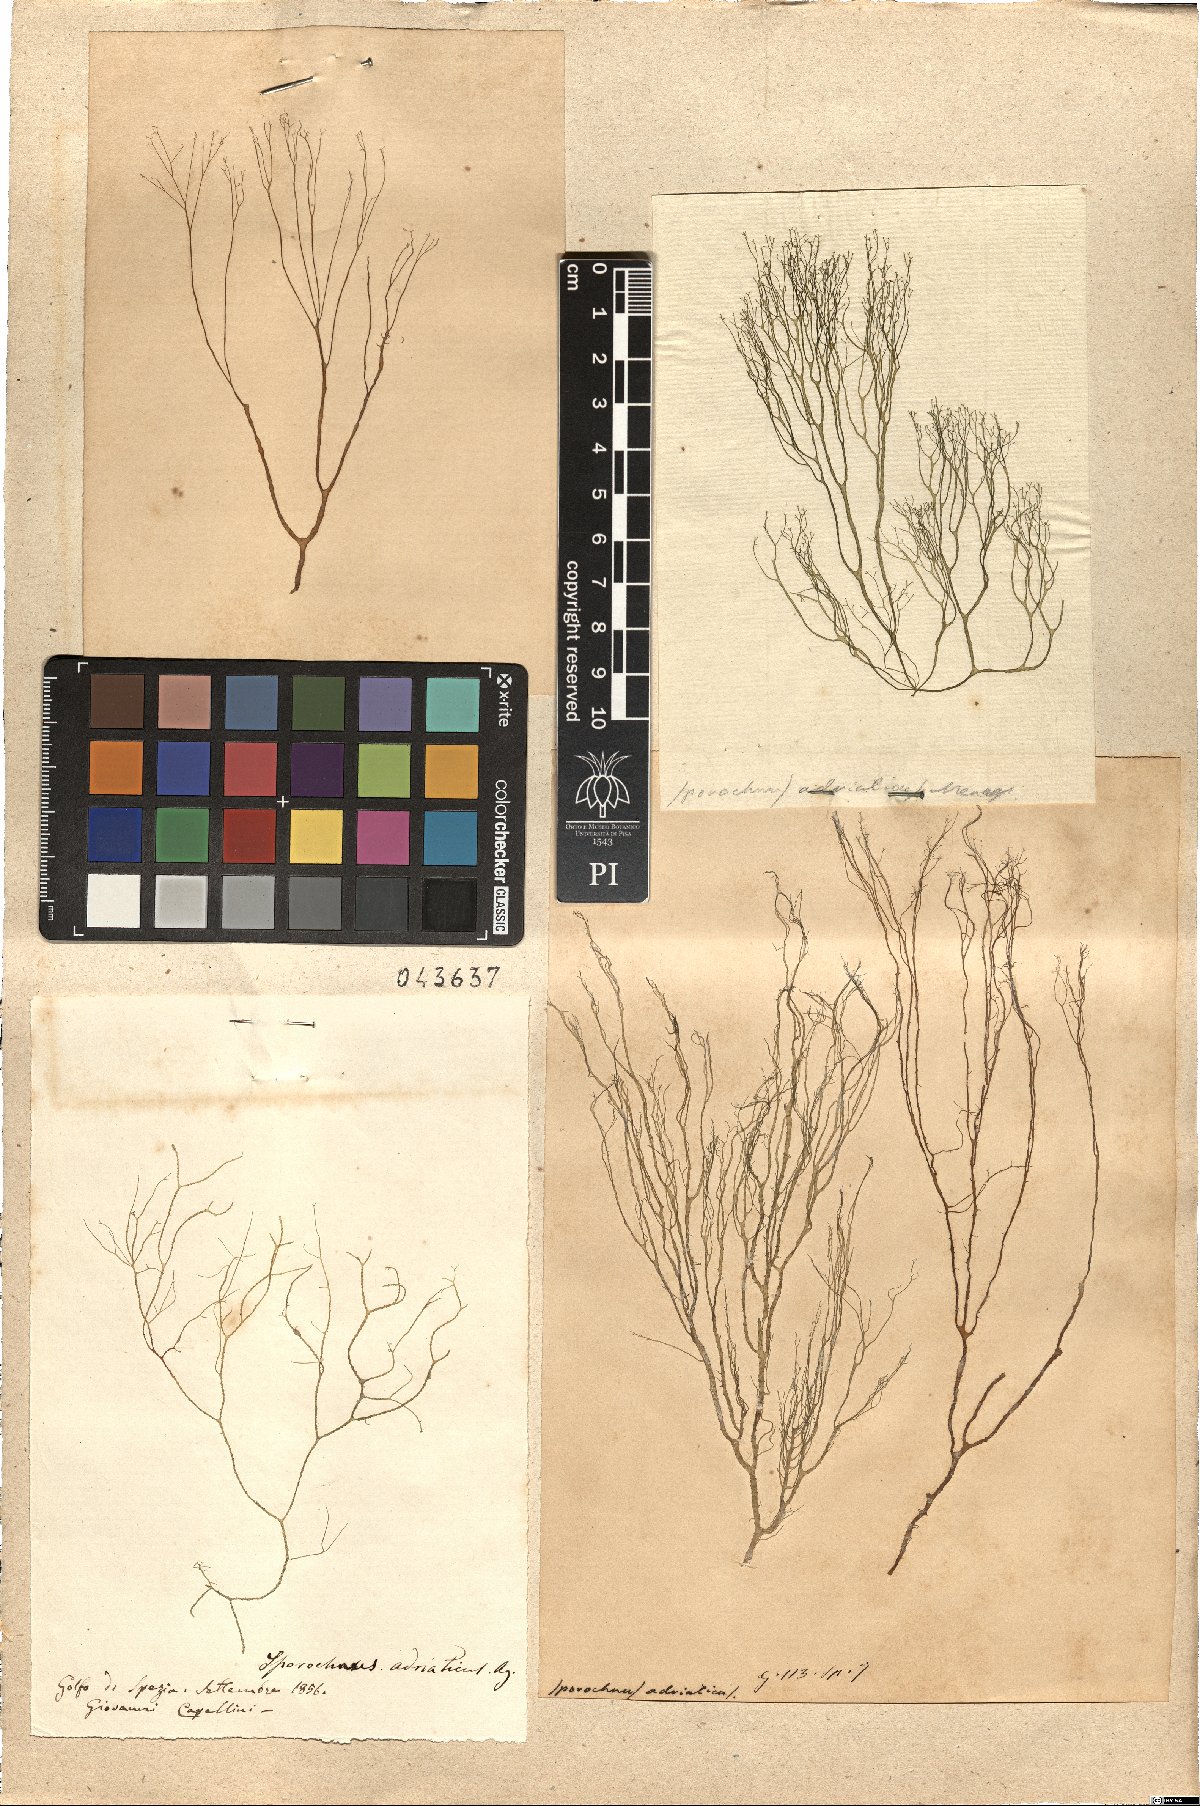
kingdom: Chromista
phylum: Ochrophyta
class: Phaeophyceae
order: Sporochnales
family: Sporochnaceae
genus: Sporochnus
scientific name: Sporochnus
